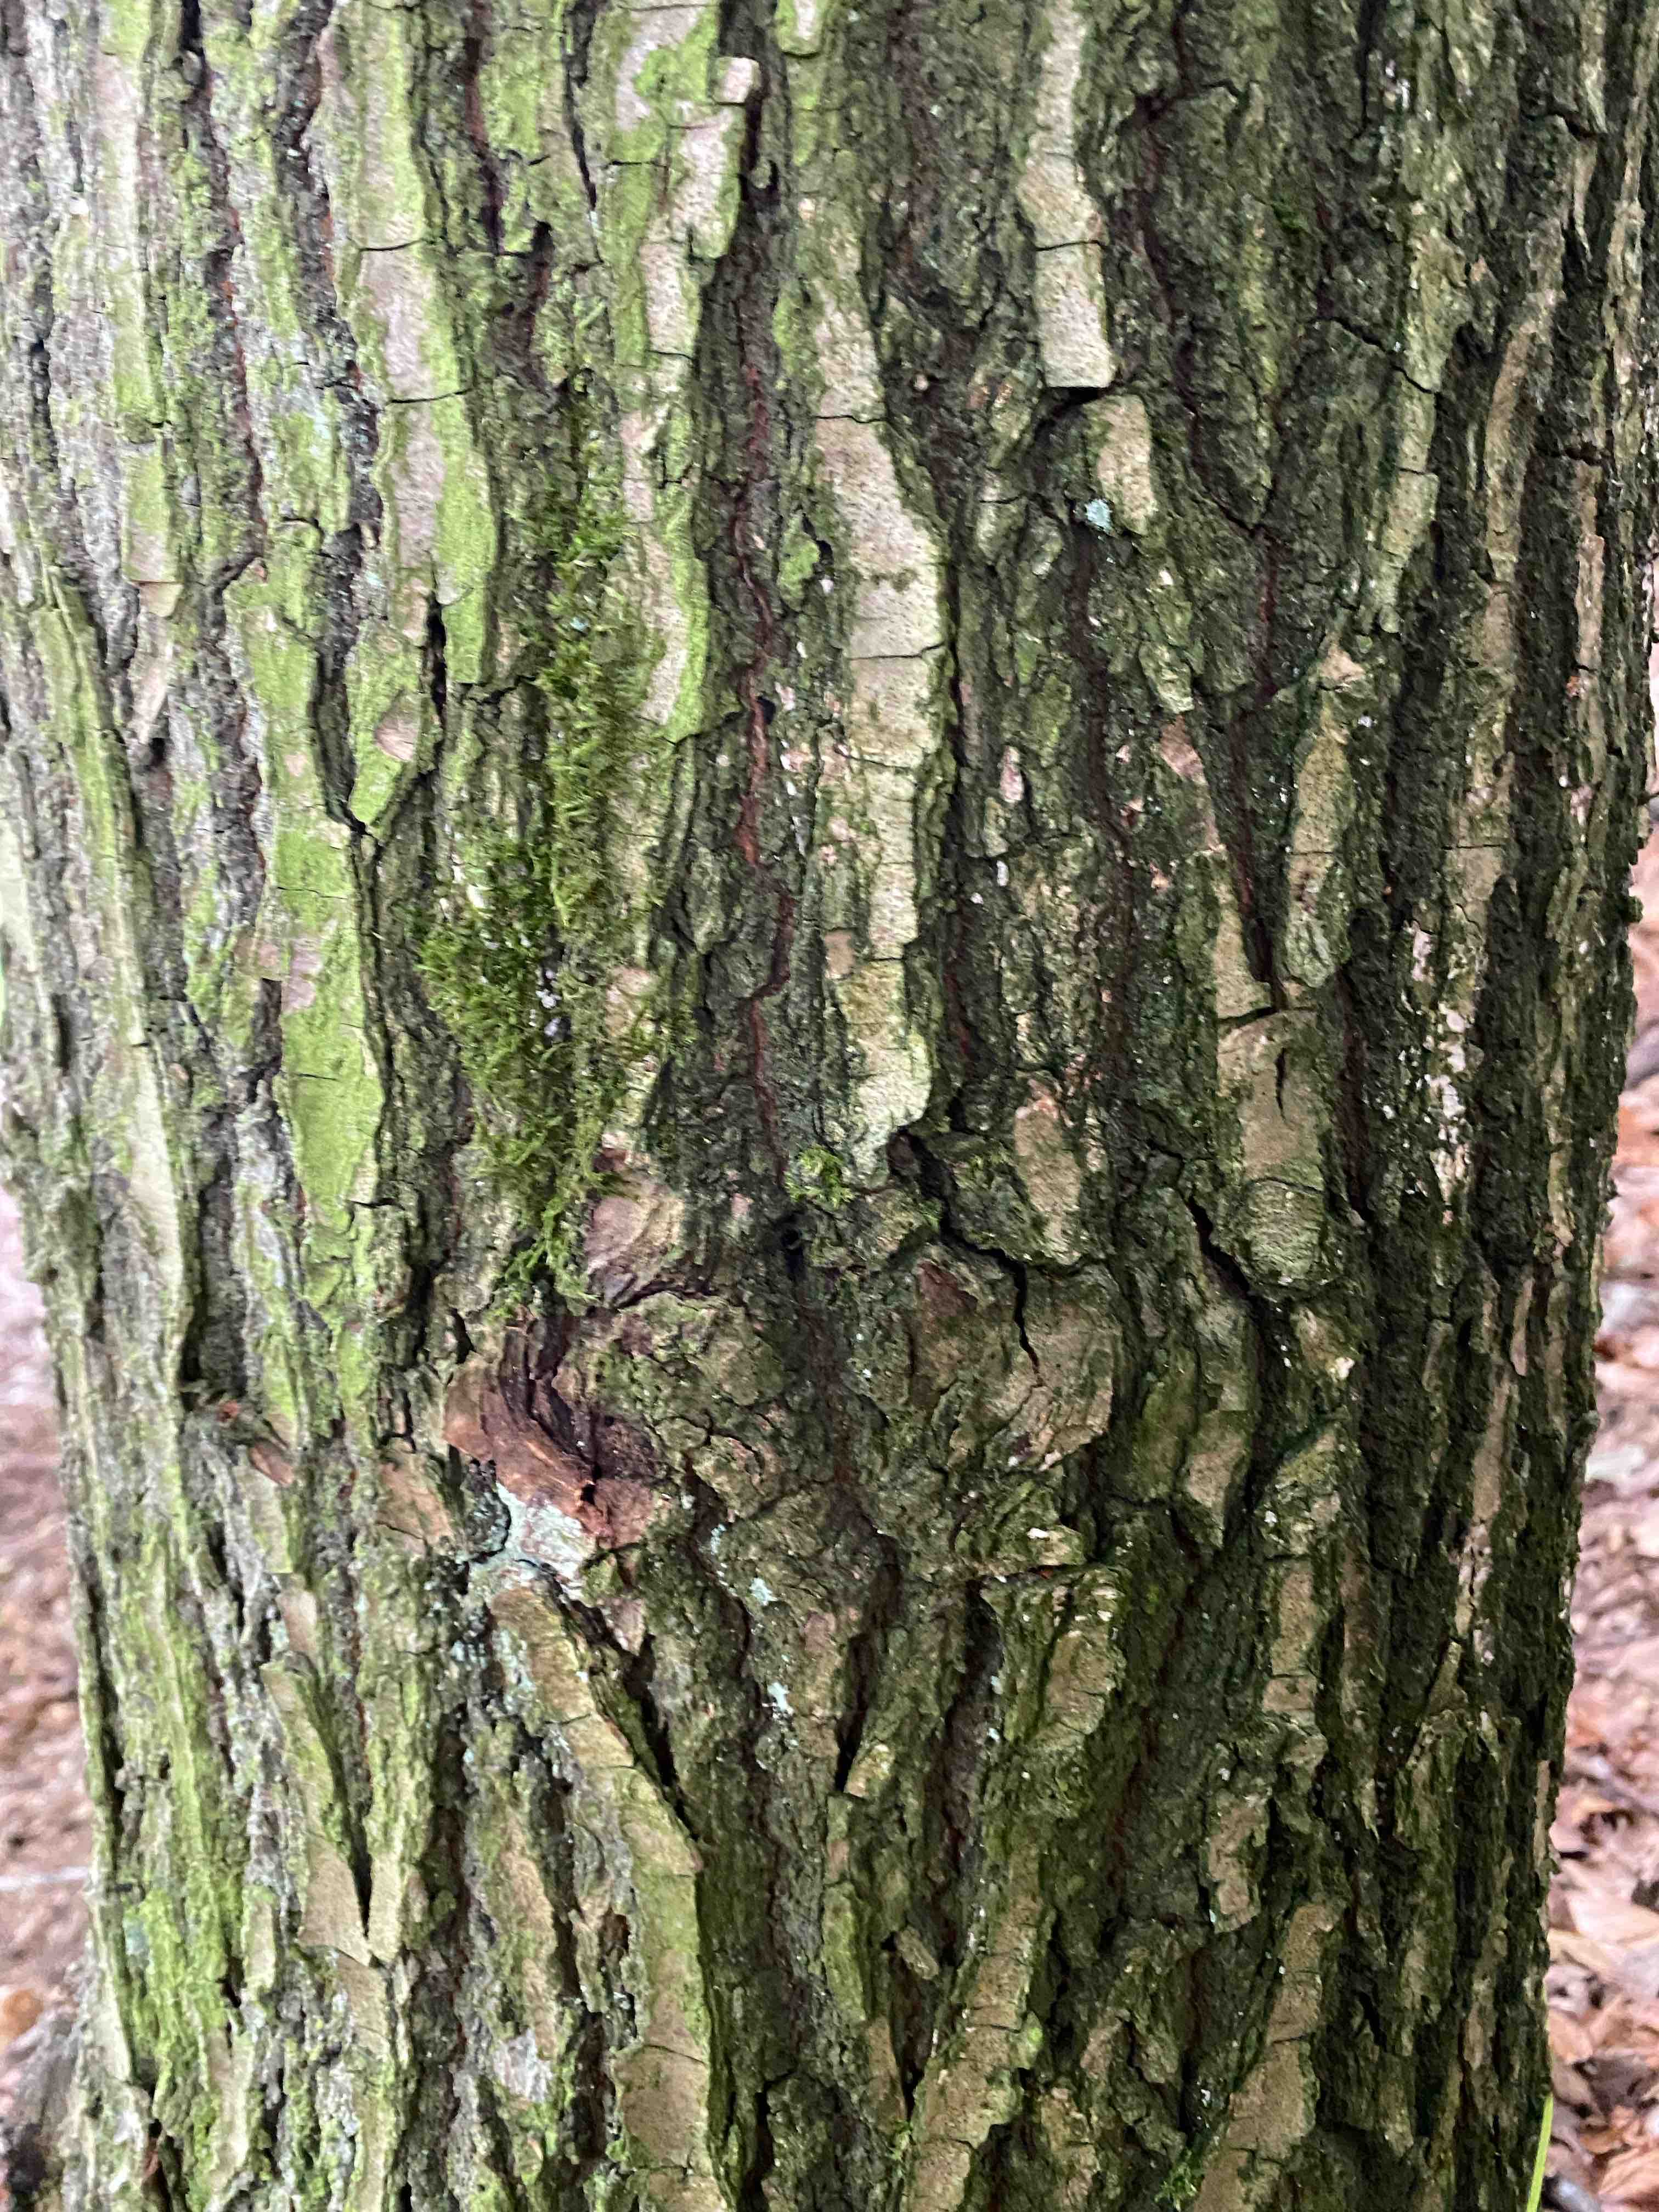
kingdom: Fungi
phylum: Basidiomycota
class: Agaricomycetes
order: Agaricales
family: Mycenaceae
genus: Mycena
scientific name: Mycena rosea
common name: rosa huesvamp
